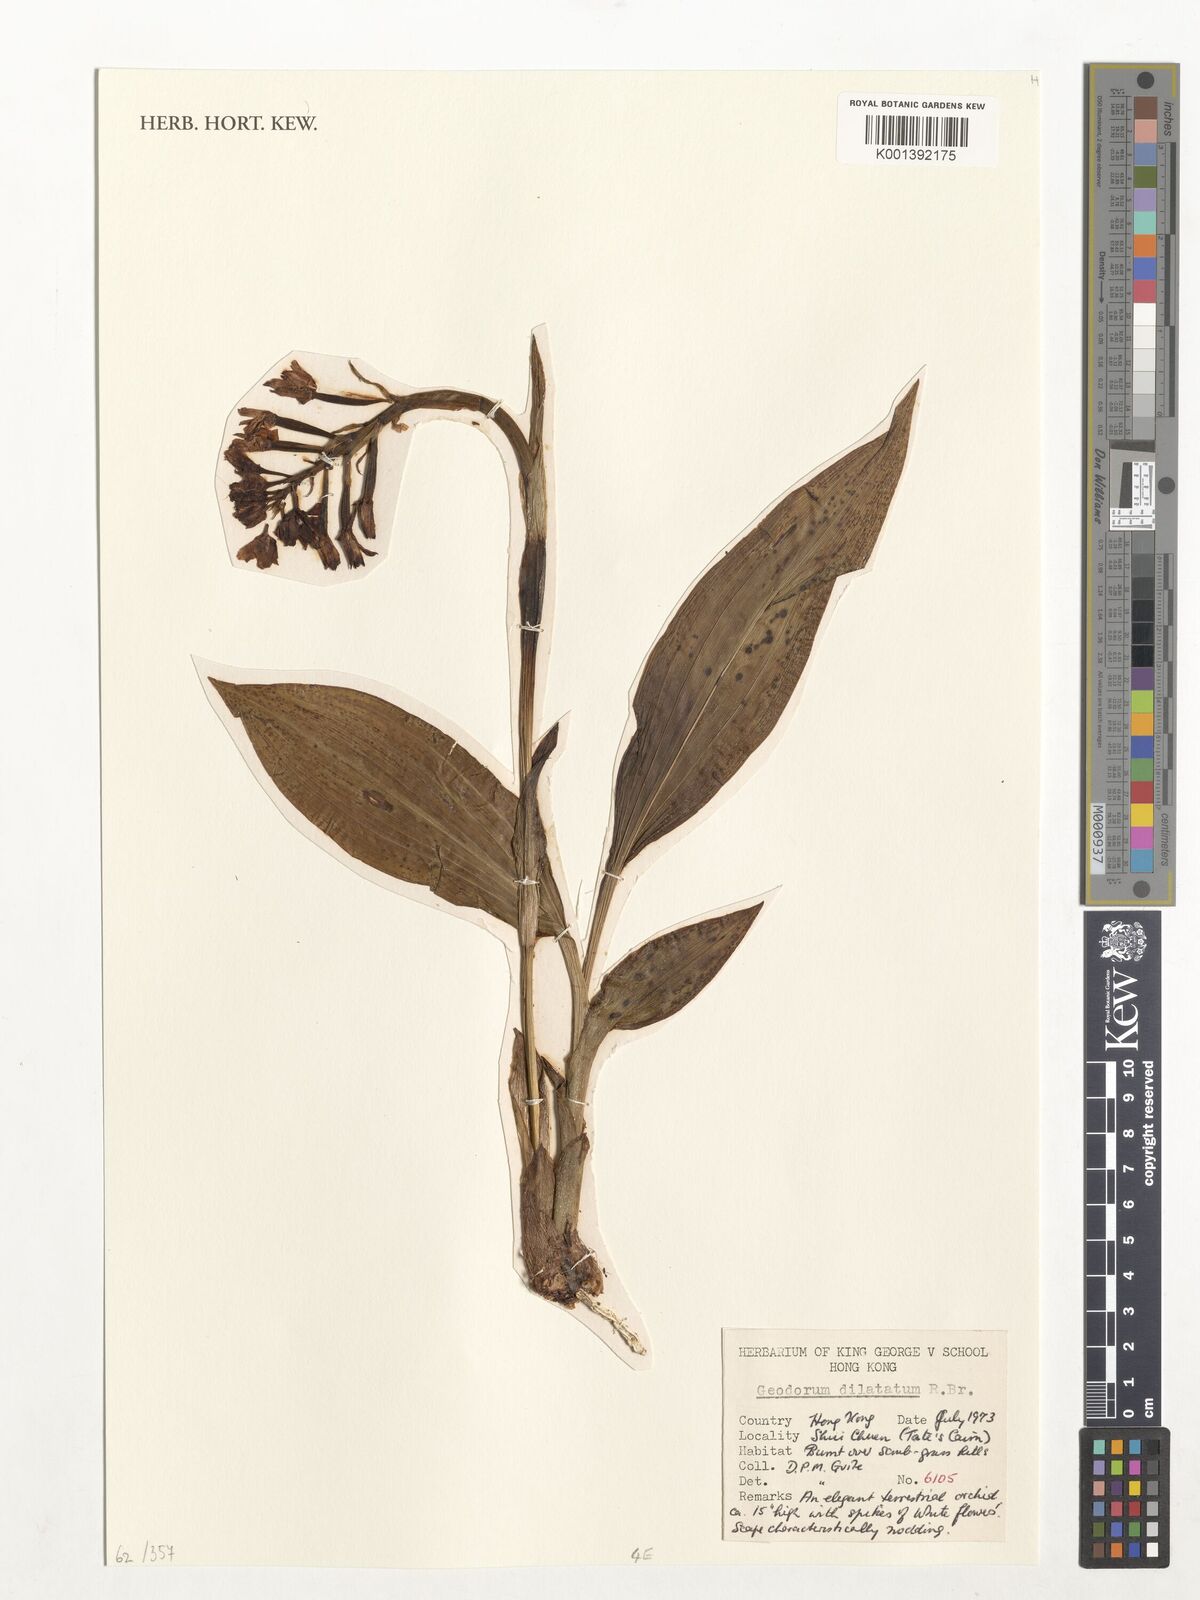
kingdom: Plantae
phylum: Tracheophyta
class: Liliopsida
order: Asparagales
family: Orchidaceae
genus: Eulophia
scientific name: Eulophia recurva
